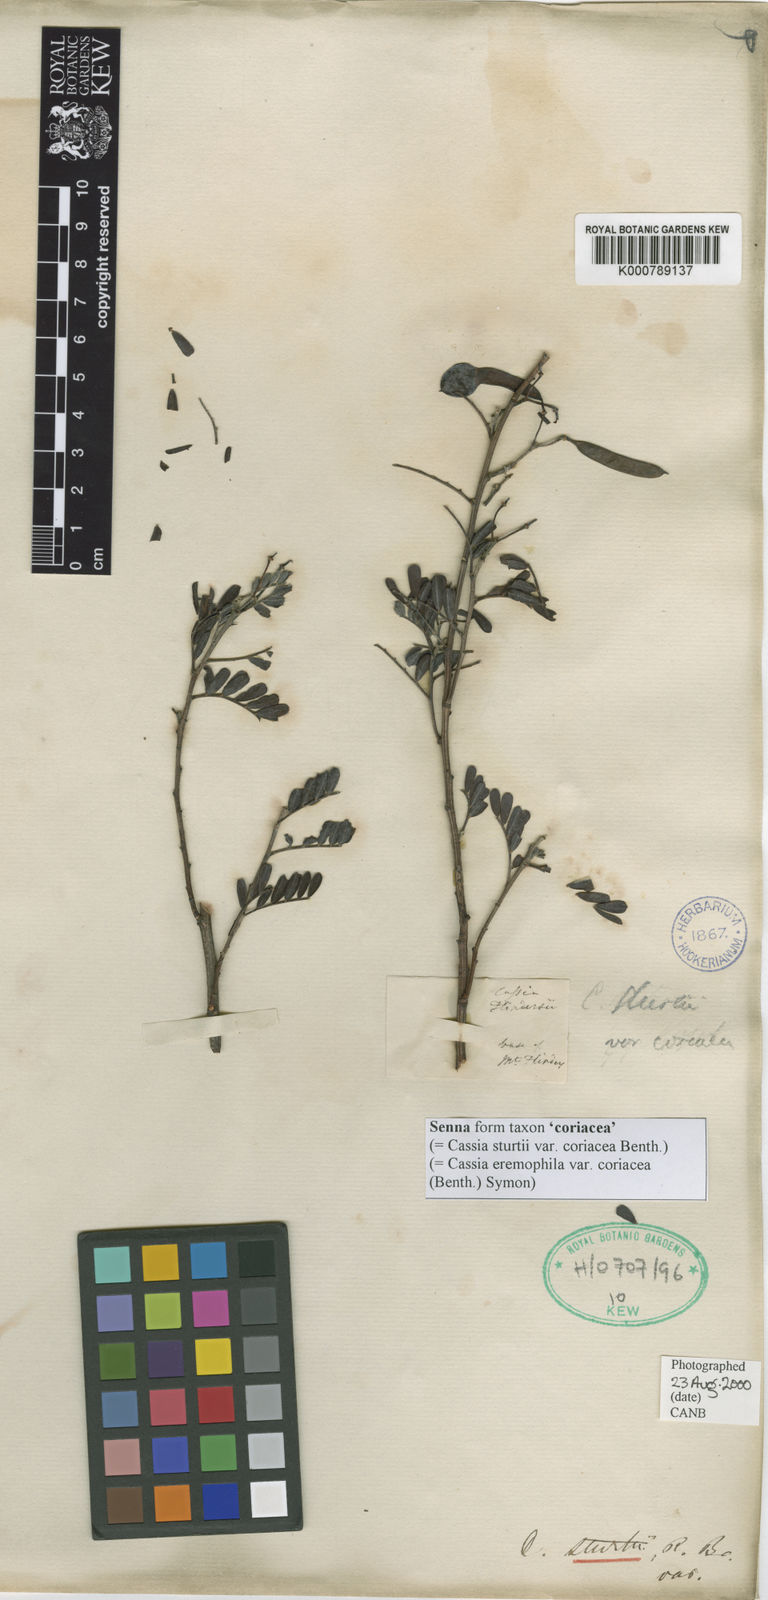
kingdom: Plantae
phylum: Tracheophyta
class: Magnoliopsida
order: Fabales
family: Fabaceae
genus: Senna
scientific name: Senna
